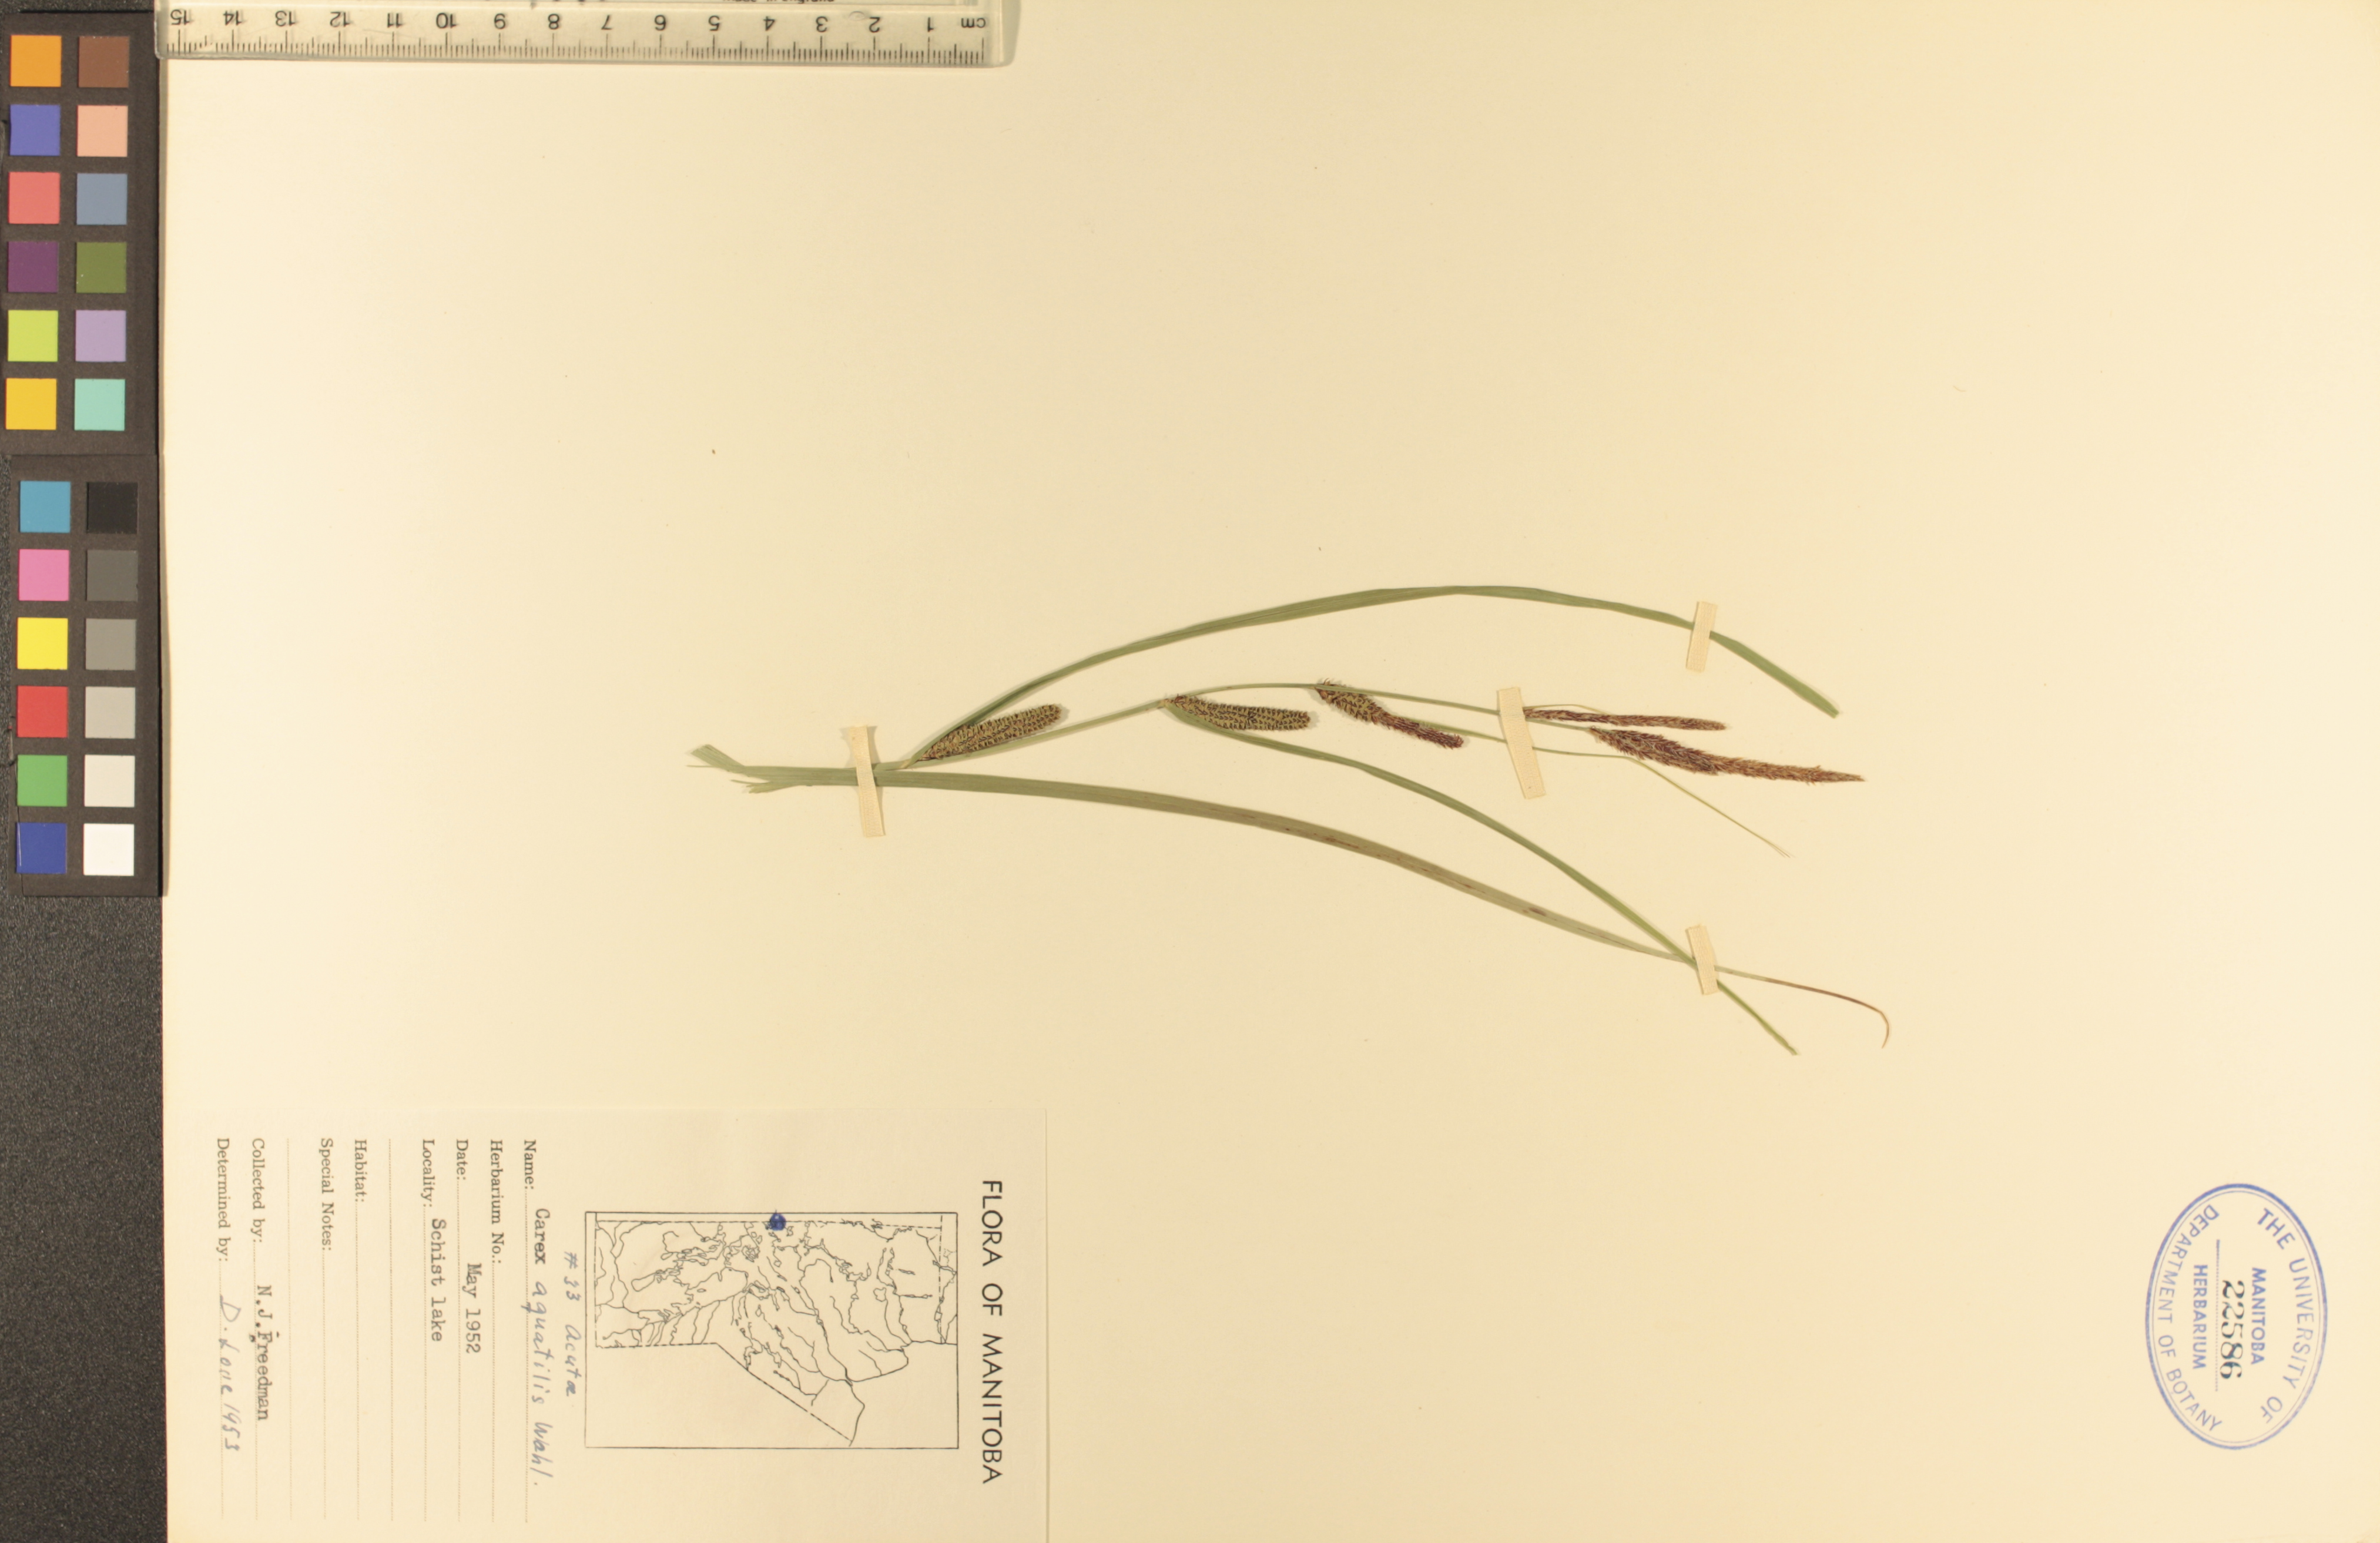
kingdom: Plantae
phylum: Tracheophyta
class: Liliopsida
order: Poales
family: Cyperaceae
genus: Carex
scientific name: Carex aquatilis
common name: Water sedge
